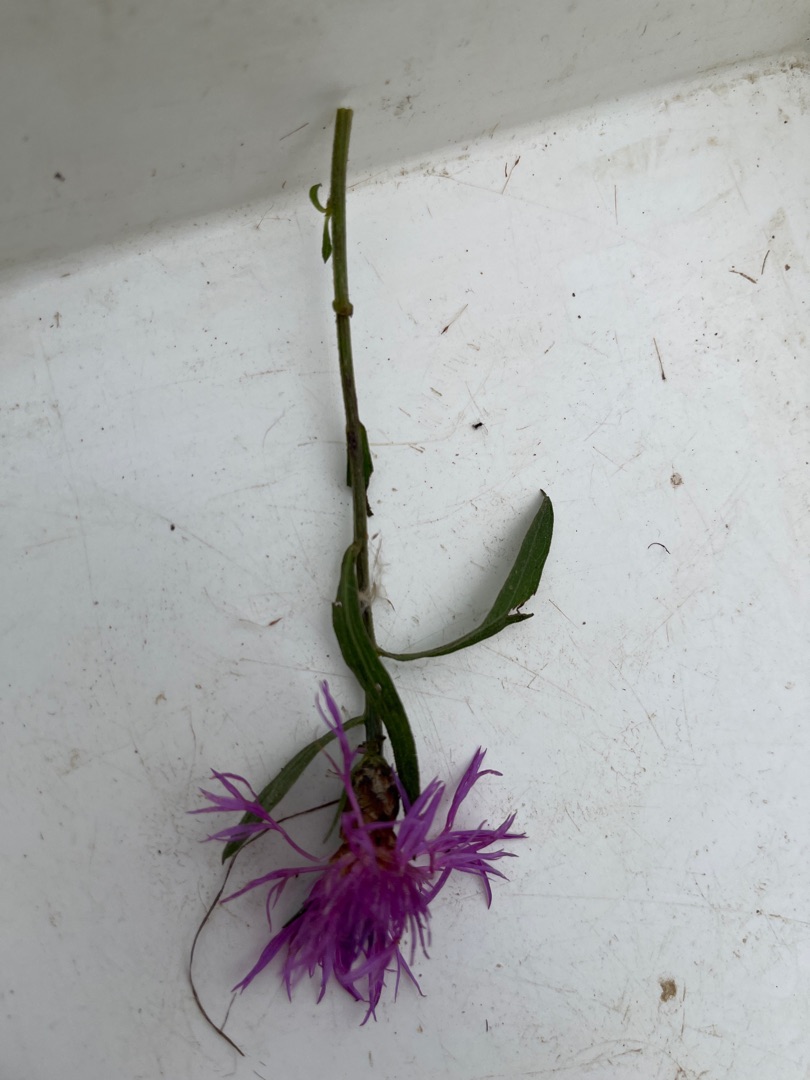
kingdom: Plantae
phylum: Tracheophyta
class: Magnoliopsida
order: Asterales
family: Asteraceae
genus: Centaurea
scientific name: Centaurea jacea
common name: Almindelig knopurt
